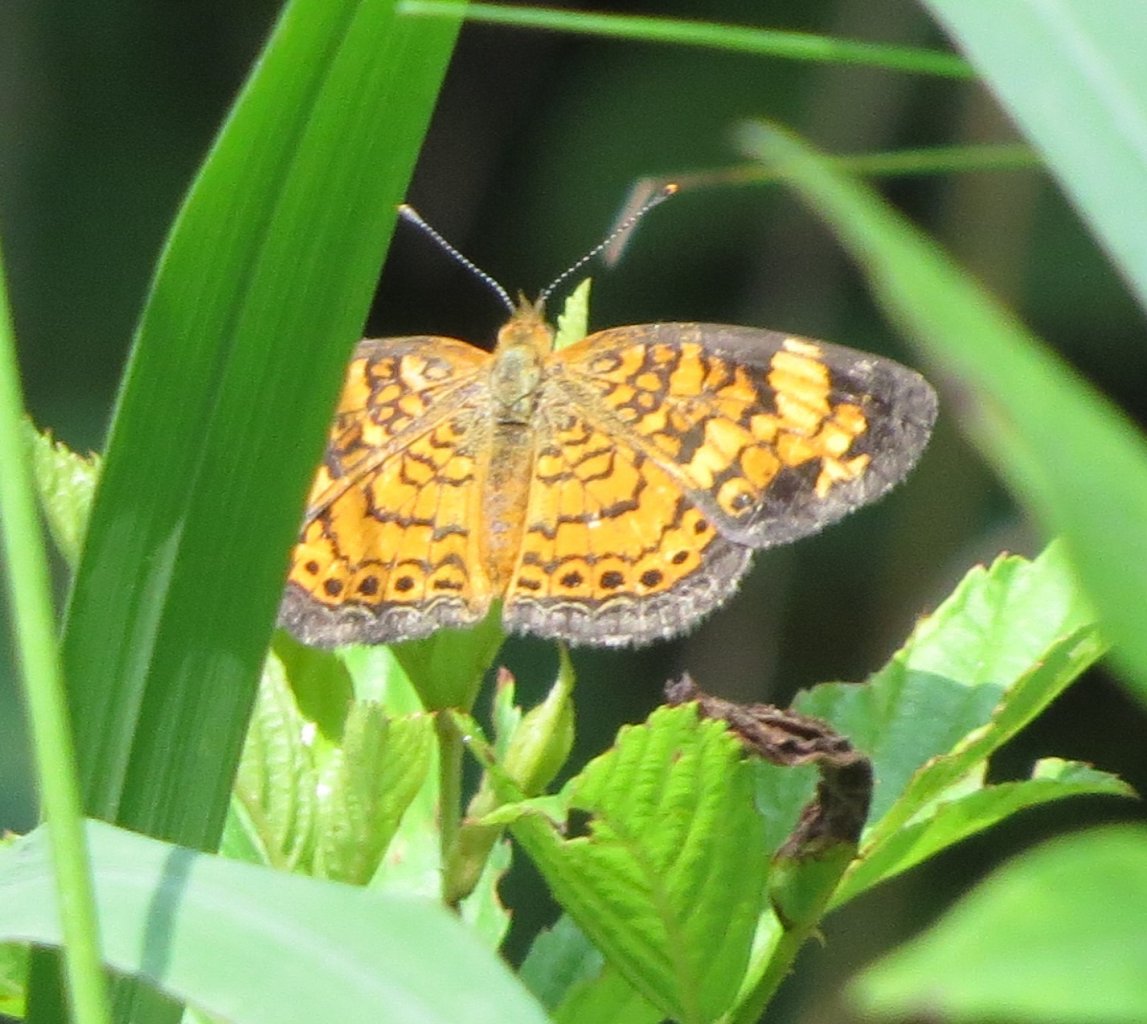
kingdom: Animalia
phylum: Arthropoda
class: Insecta
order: Lepidoptera
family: Nymphalidae
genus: Phyciodes
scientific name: Phyciodes tharos
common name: Pearl Crescent
